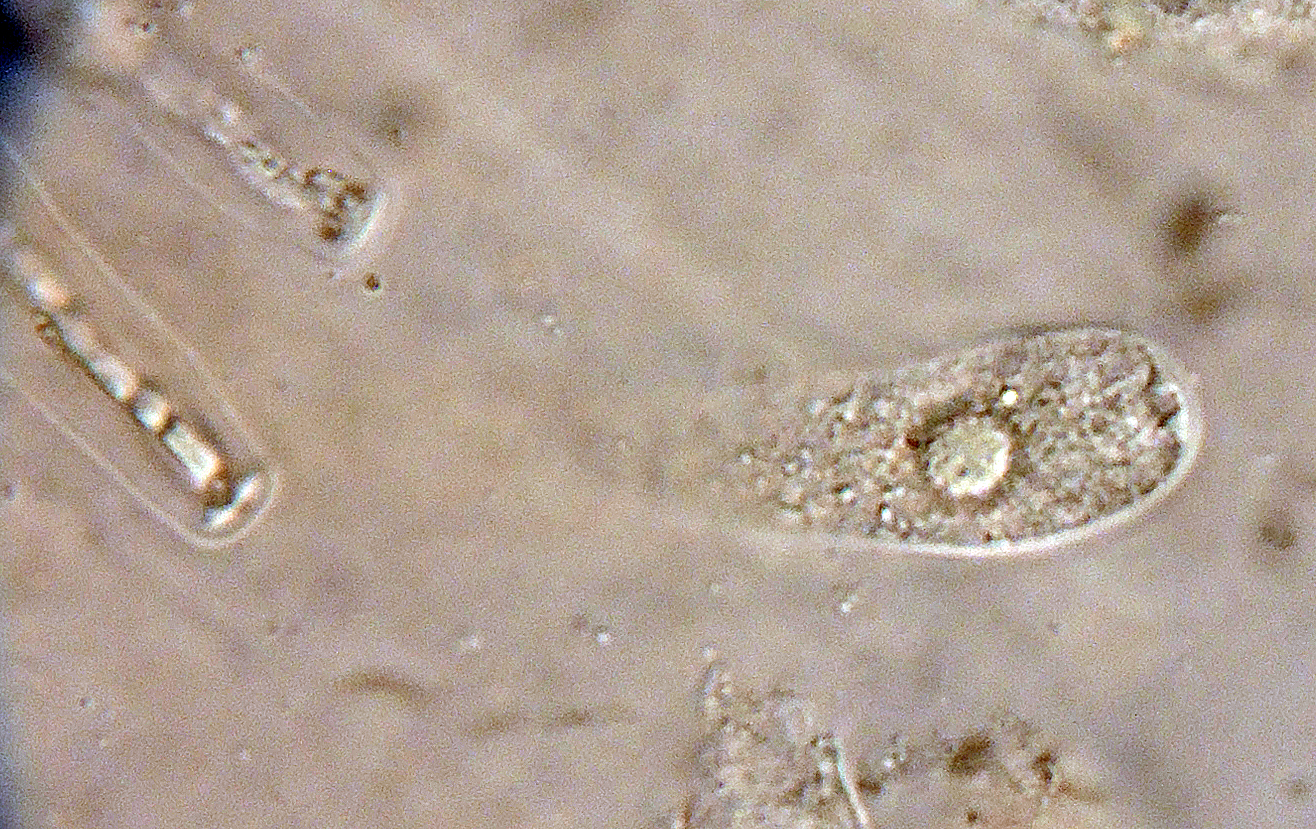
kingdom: Fungi
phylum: Ascomycota
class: Sordariomycetes
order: Sordariales
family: Neoschizotheciaceae
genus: Cercophora
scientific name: Cercophora mirabilis
